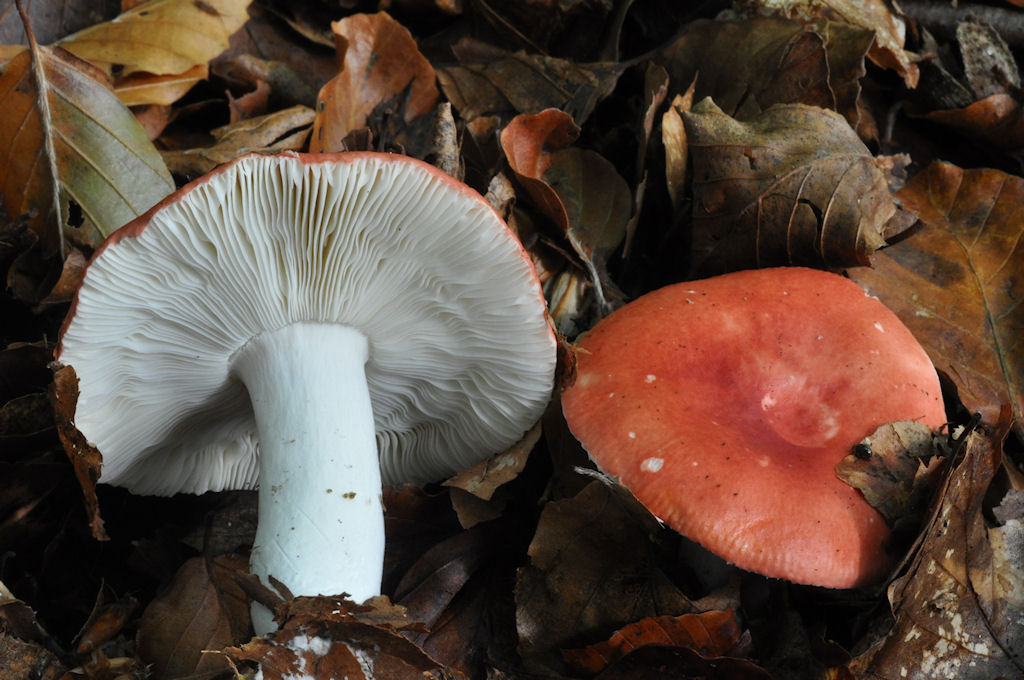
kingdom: Fungi
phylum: Basidiomycota
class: Agaricomycetes
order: Russulales
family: Russulaceae
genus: Russula
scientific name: Russula emetica
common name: stor gift-skørhat
